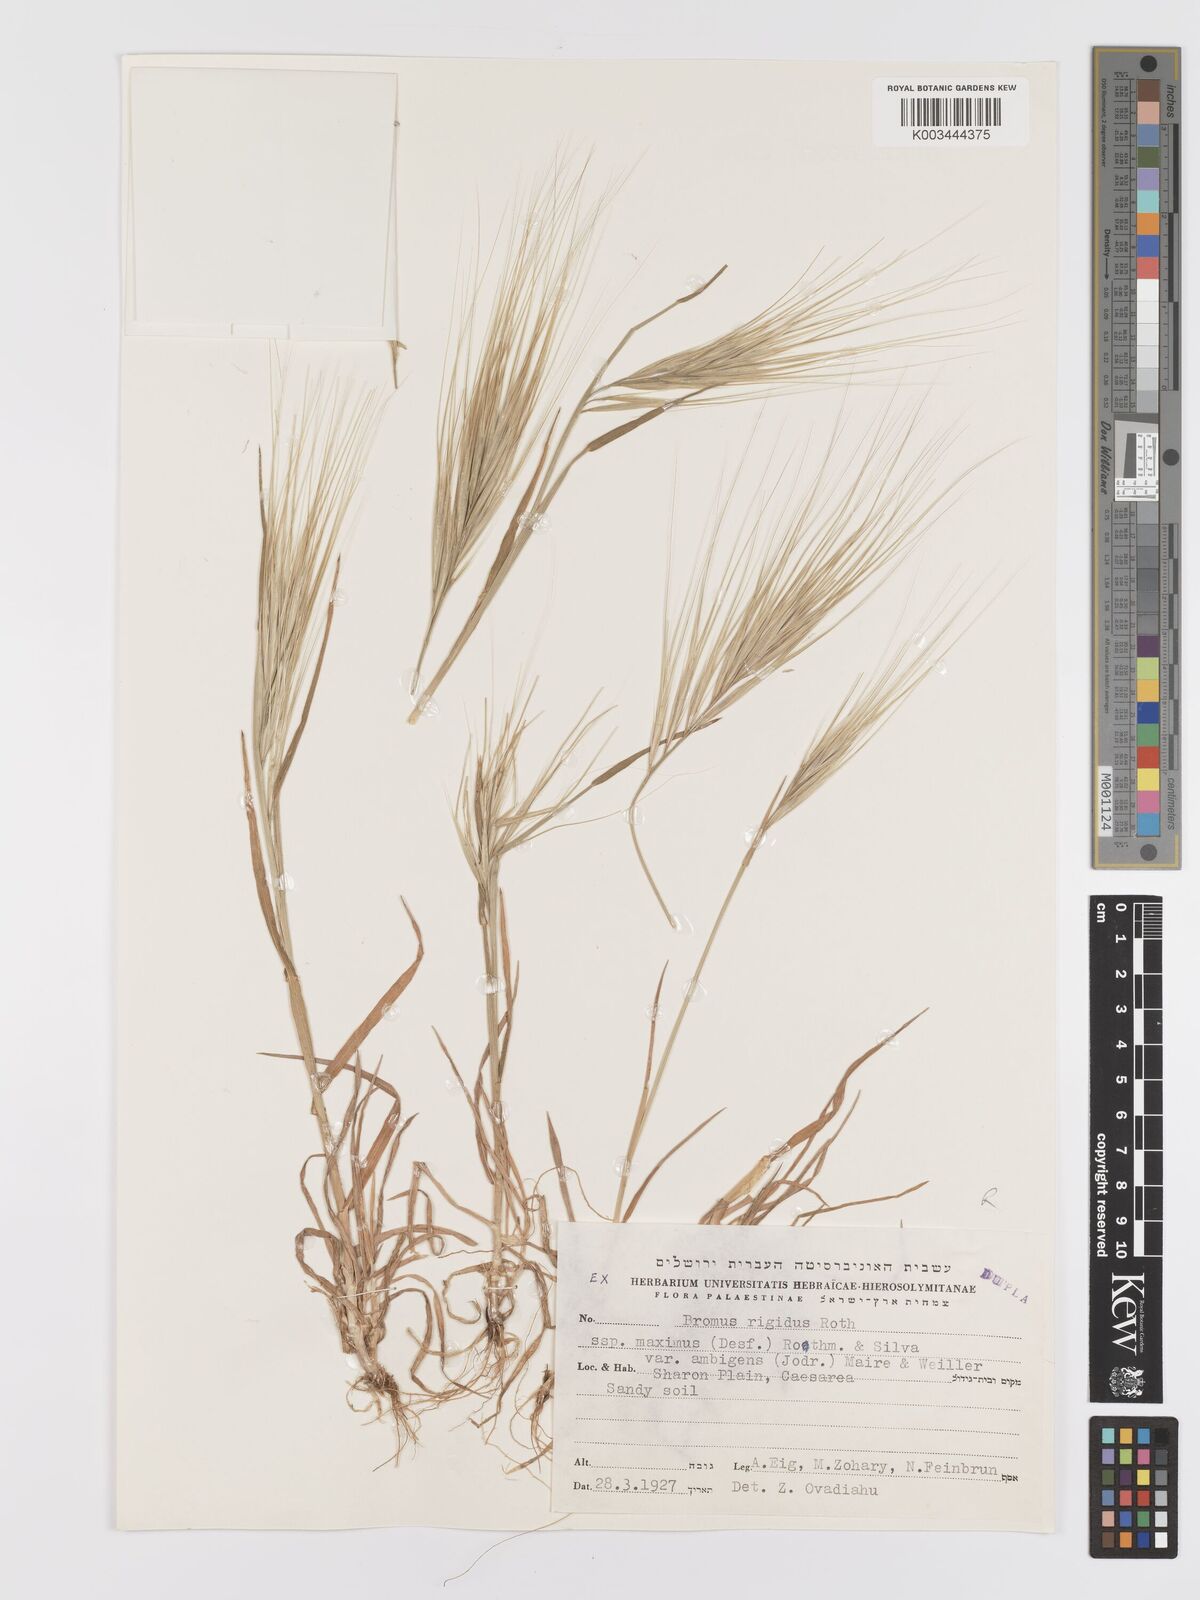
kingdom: Plantae
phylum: Tracheophyta
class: Liliopsida
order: Poales
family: Poaceae
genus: Bromus
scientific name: Bromus
